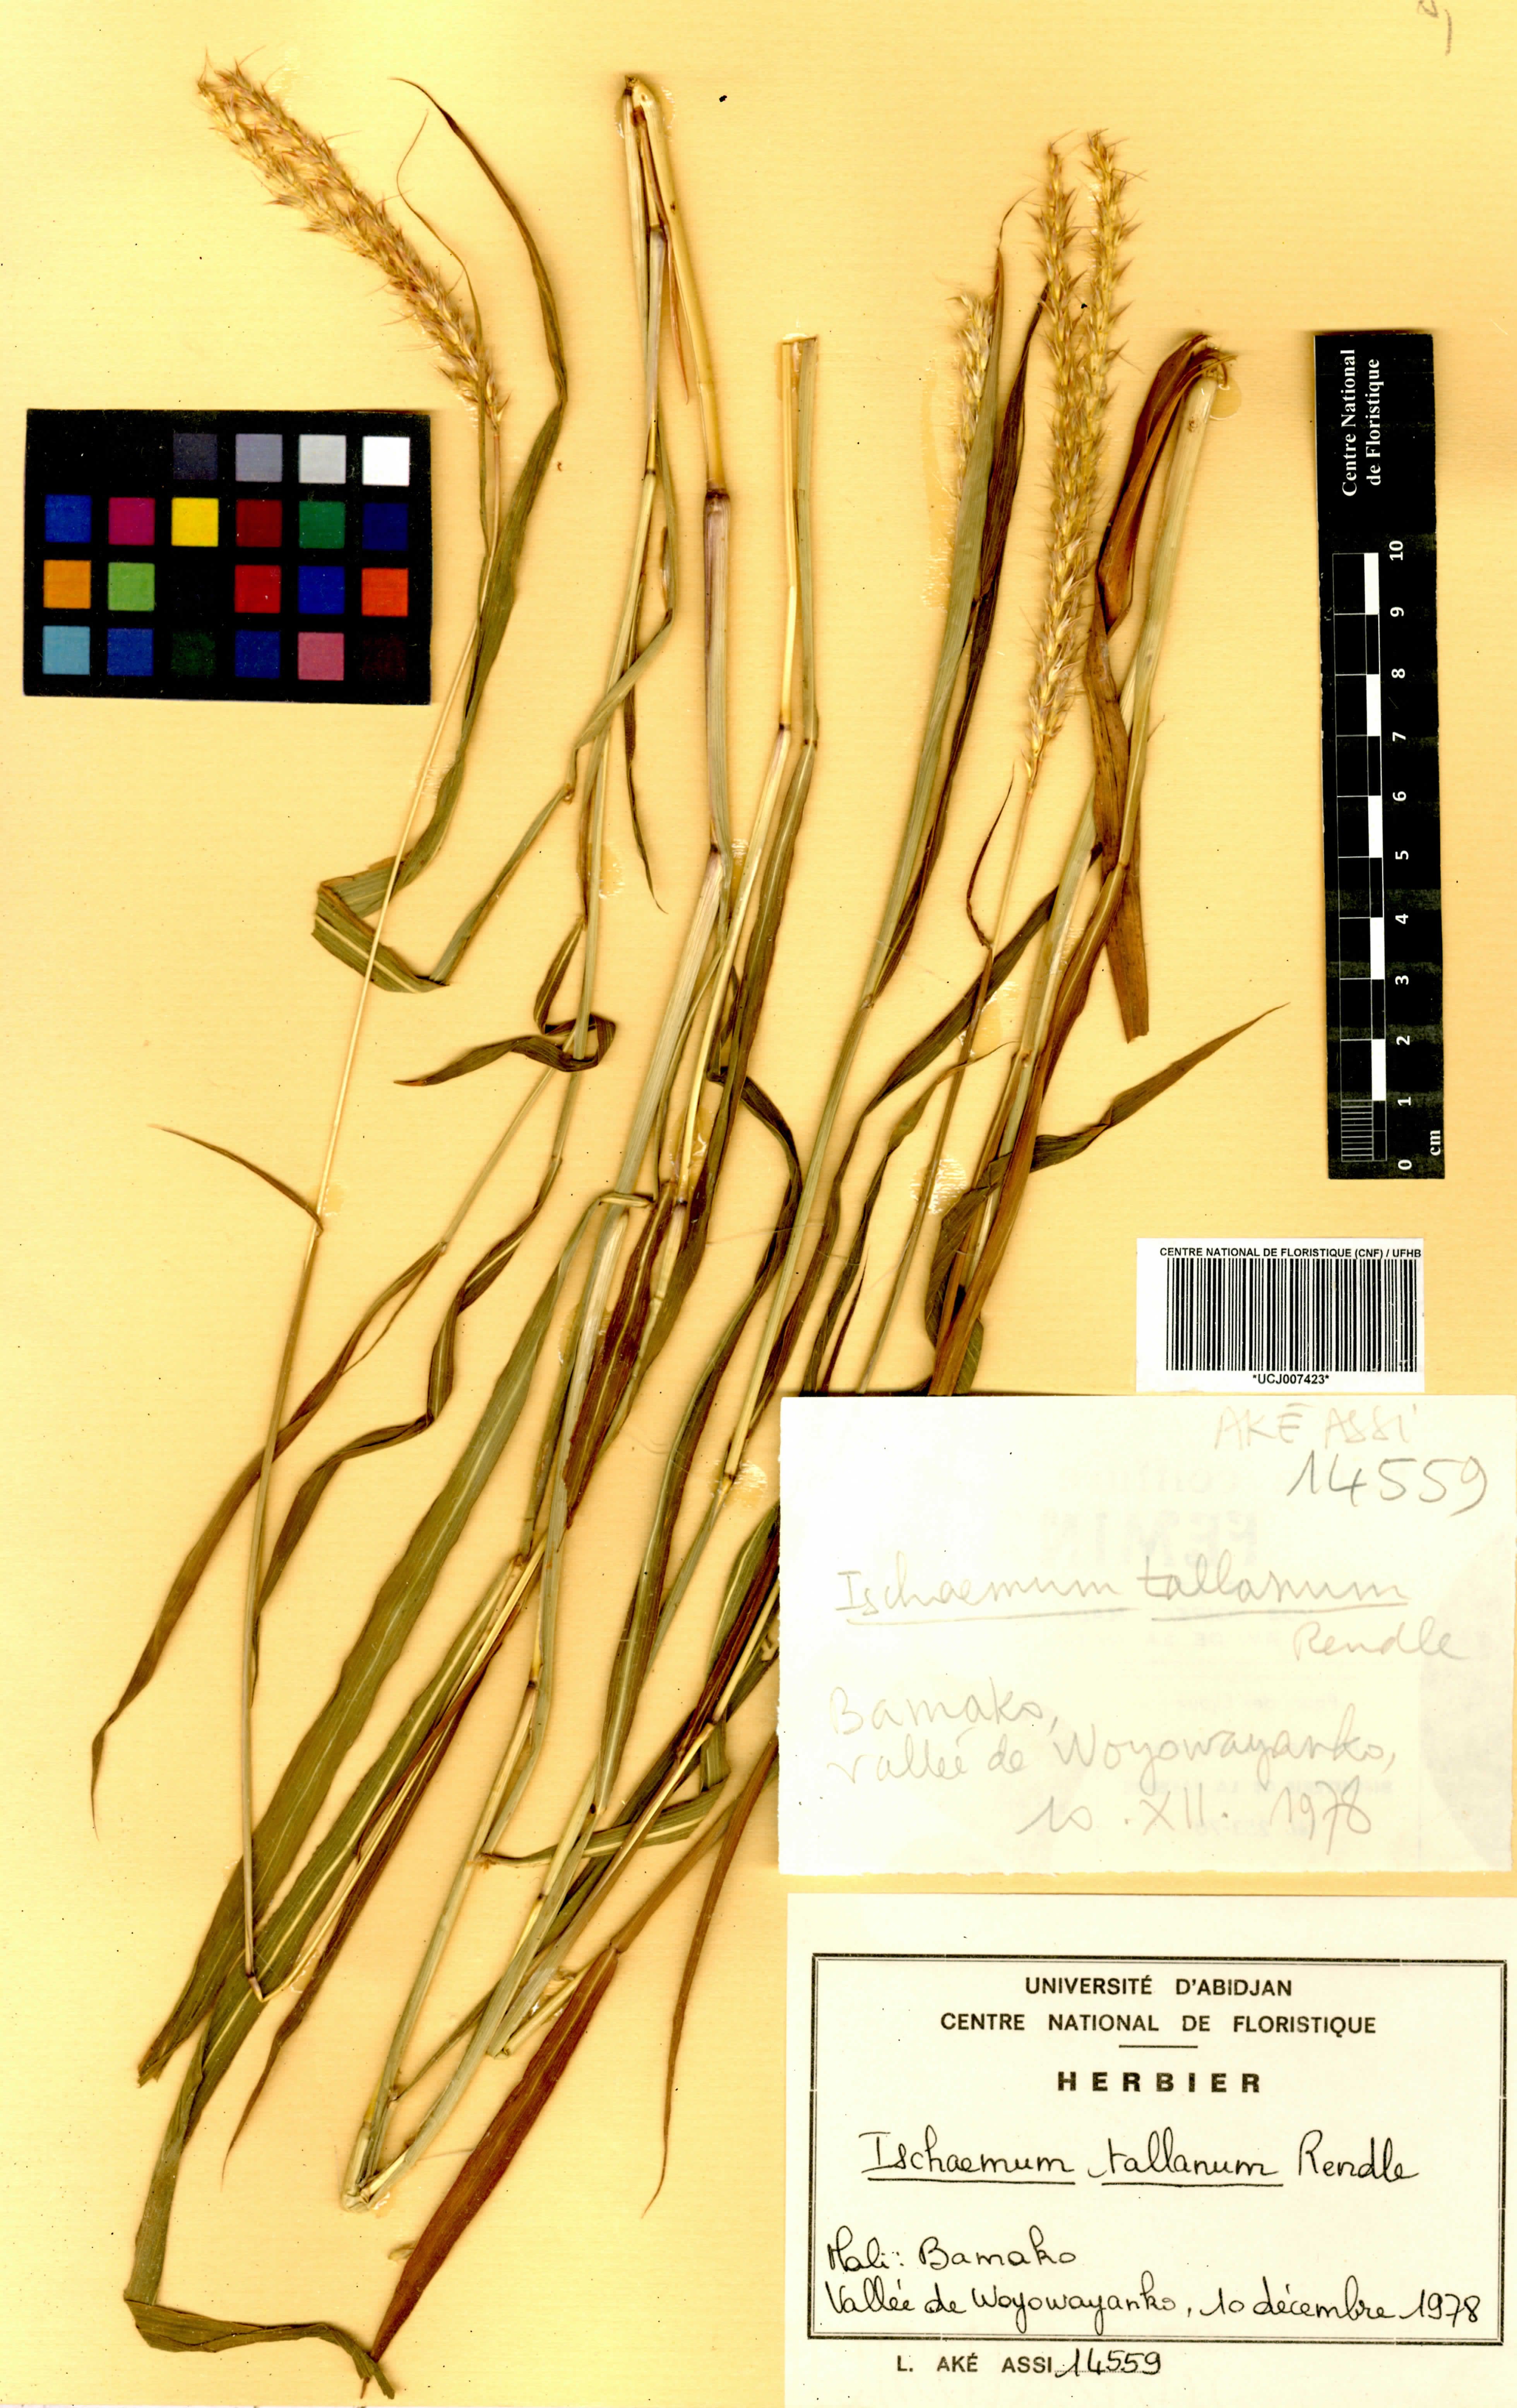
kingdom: Plantae
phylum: Tracheophyta
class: Liliopsida
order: Poales
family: Poaceae
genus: Ischaemum
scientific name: Ischaemum polystachyum
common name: Paddle grass
